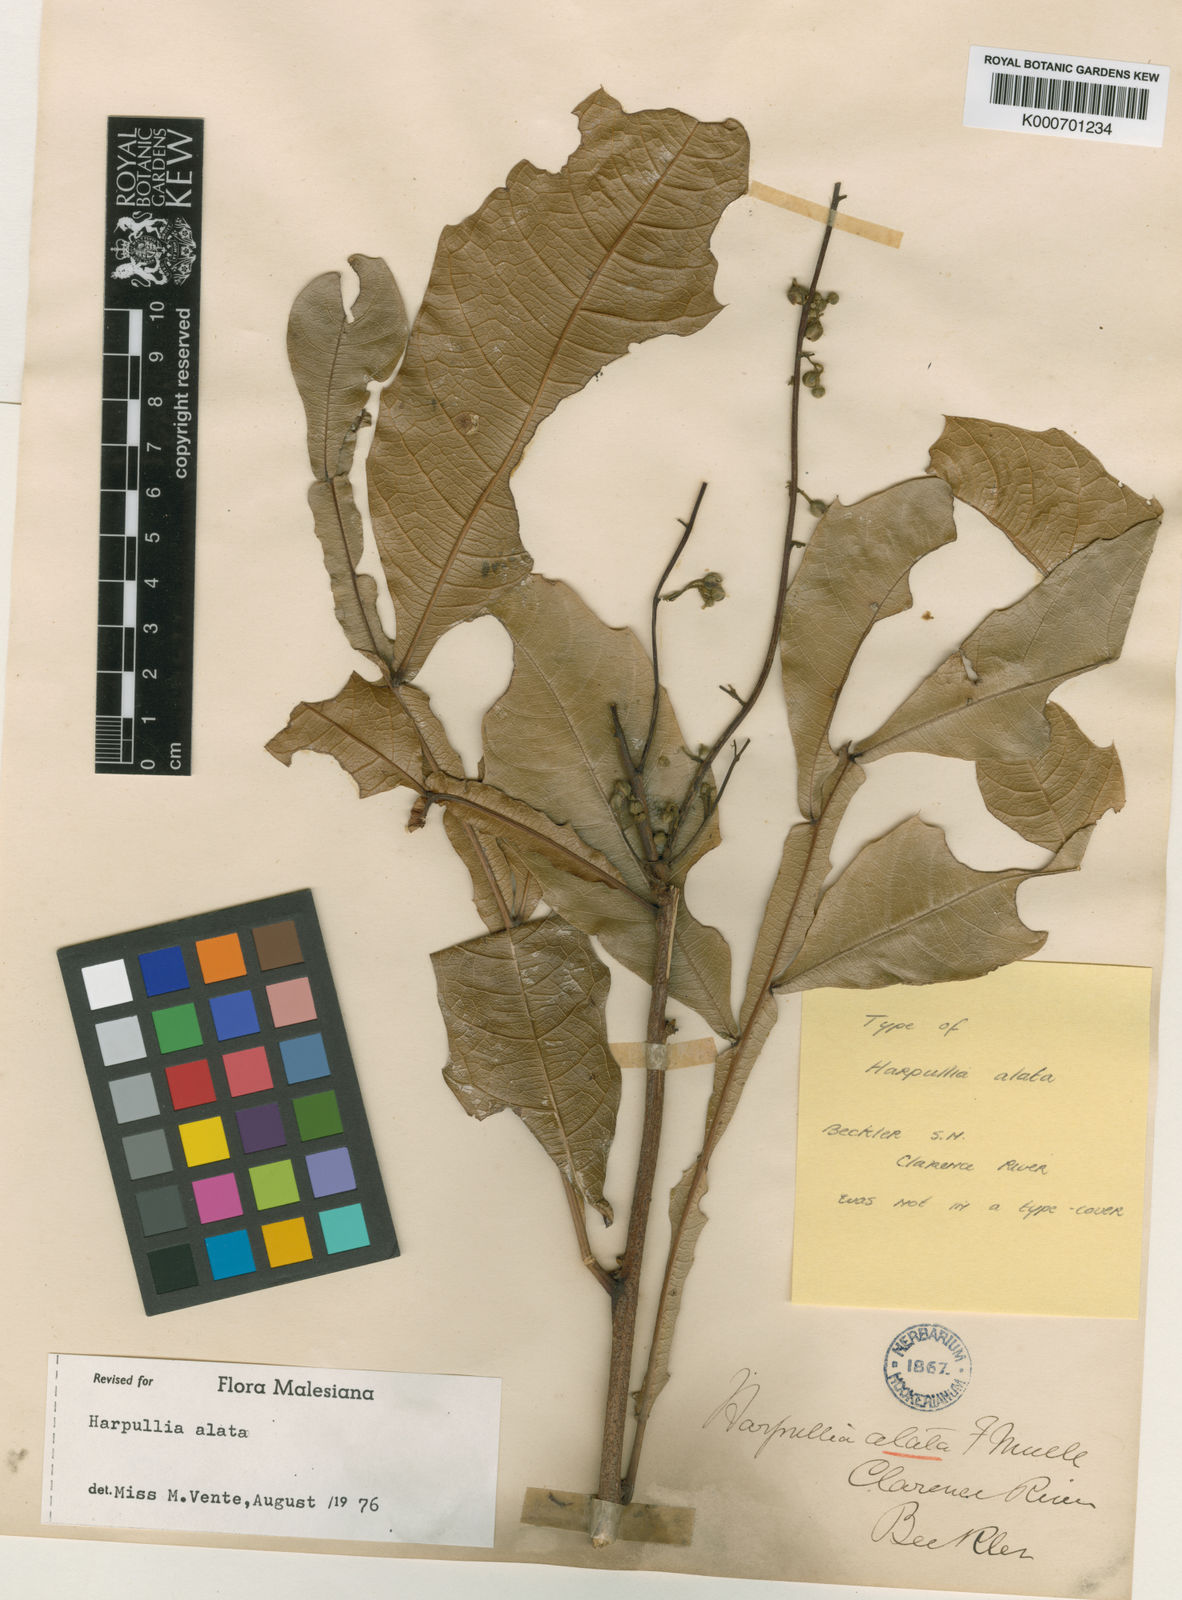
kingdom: Plantae
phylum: Tracheophyta
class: Magnoliopsida
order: Sapindales
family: Sapindaceae
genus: Harpullia
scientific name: Harpullia alata
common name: Wing-leaved tulip
